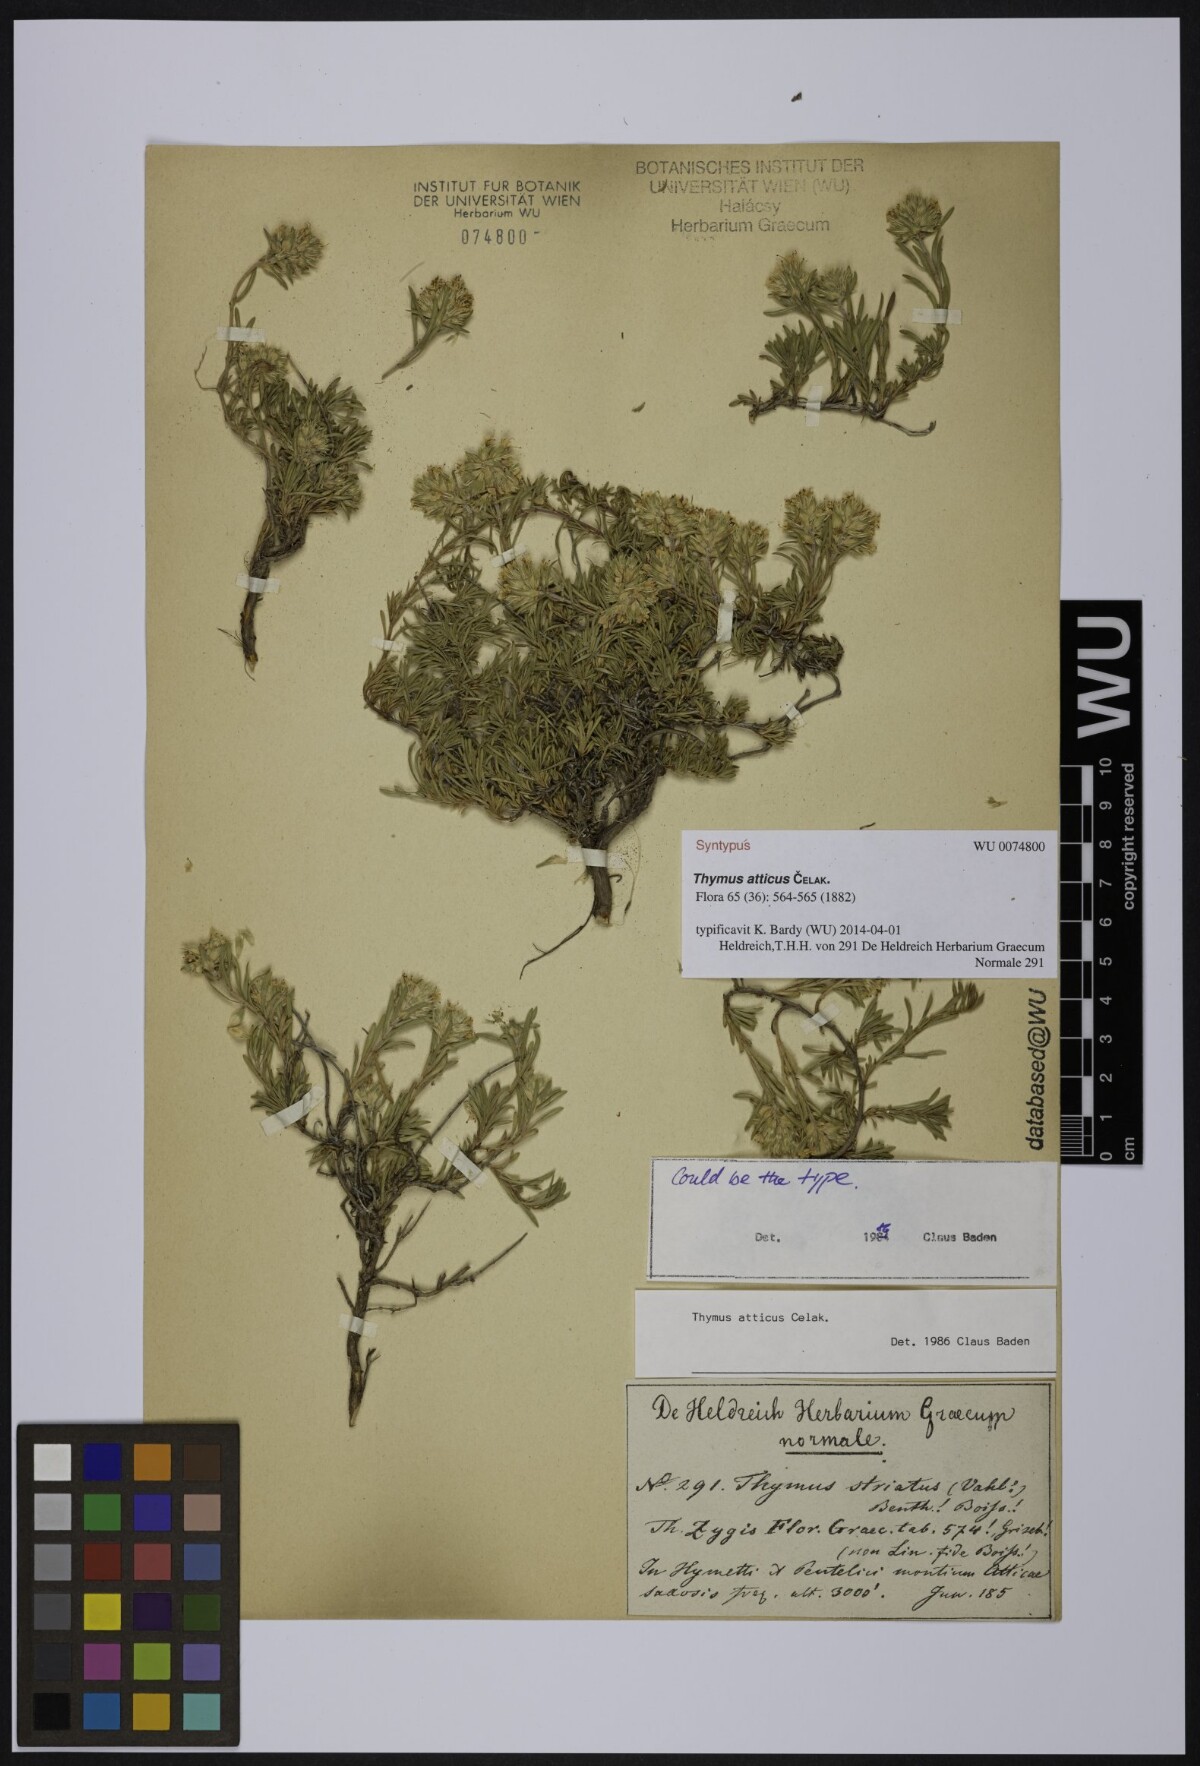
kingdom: Plantae
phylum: Tracheophyta
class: Magnoliopsida
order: Lamiales
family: Lamiaceae
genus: Thymus
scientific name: Thymus atticus
